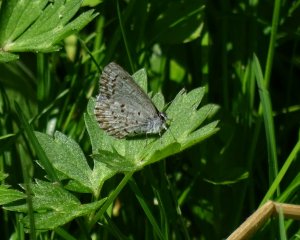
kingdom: Animalia
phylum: Arthropoda
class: Insecta
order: Lepidoptera
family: Lycaenidae
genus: Celastrina
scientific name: Celastrina lucia
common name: Northern Spring Azure
